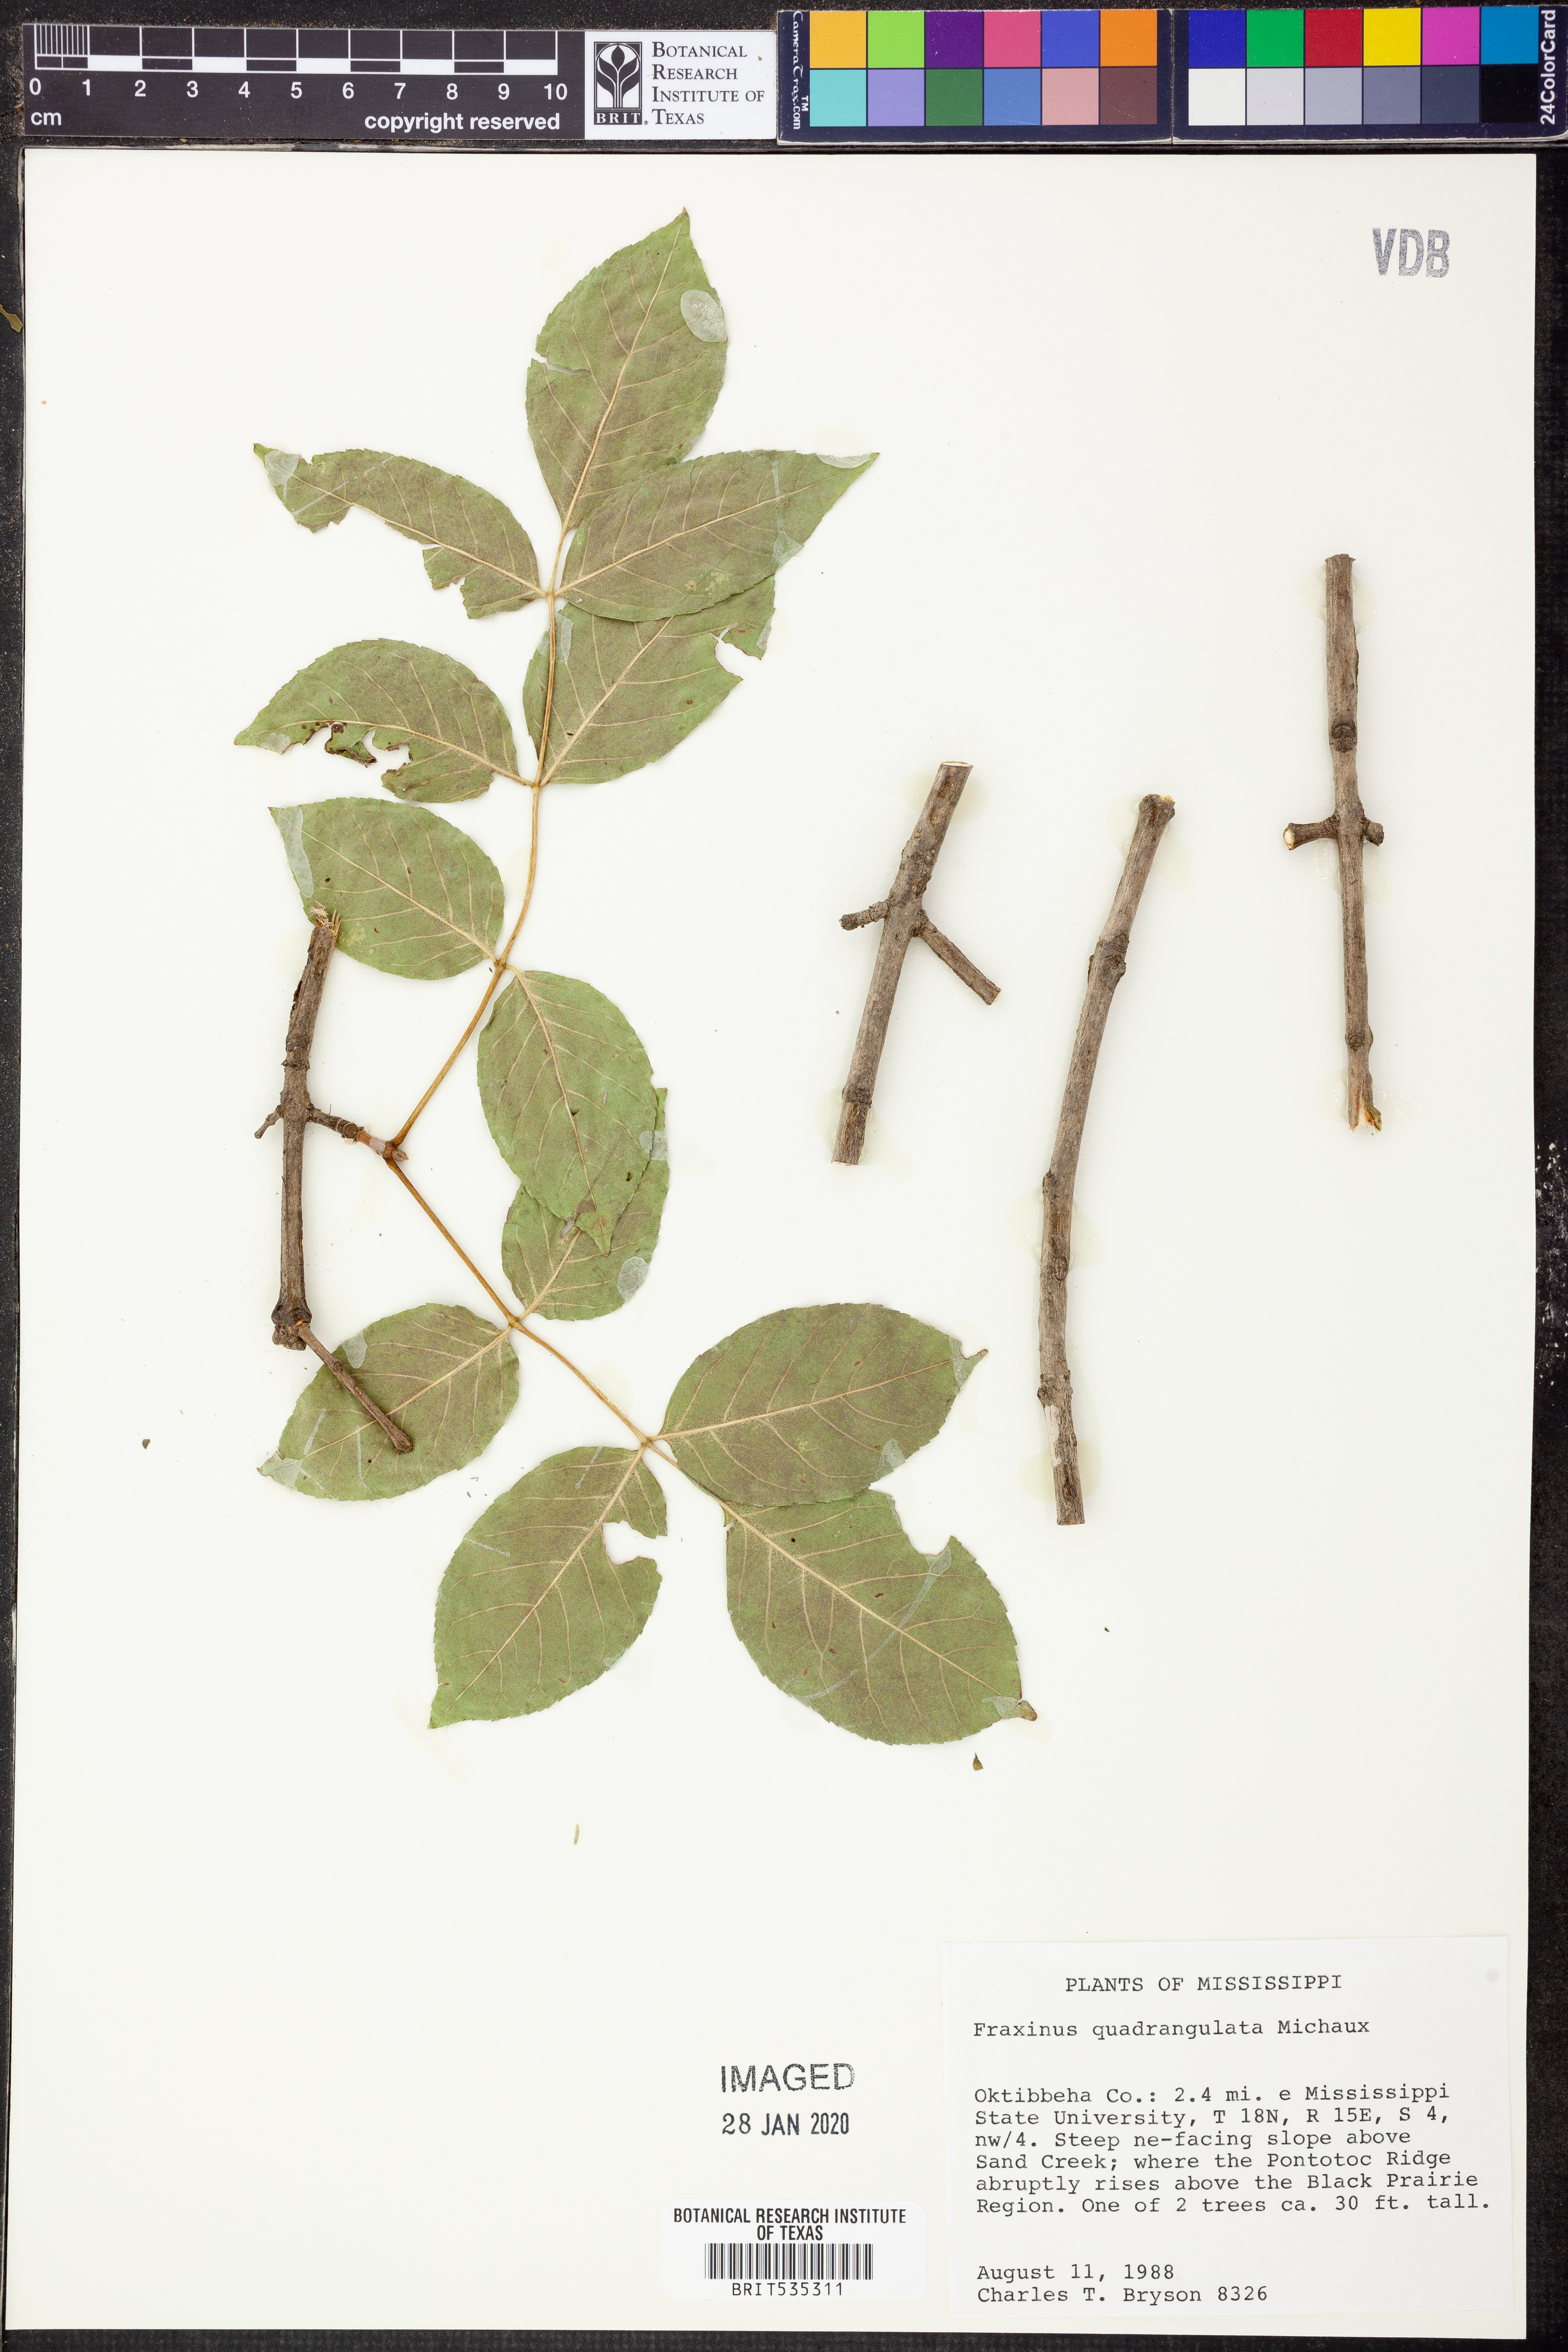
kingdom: Plantae
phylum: Tracheophyta
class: Magnoliopsida
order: Lamiales
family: Oleaceae
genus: Fraxinus
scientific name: Fraxinus quadrangulata
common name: Blue ash
